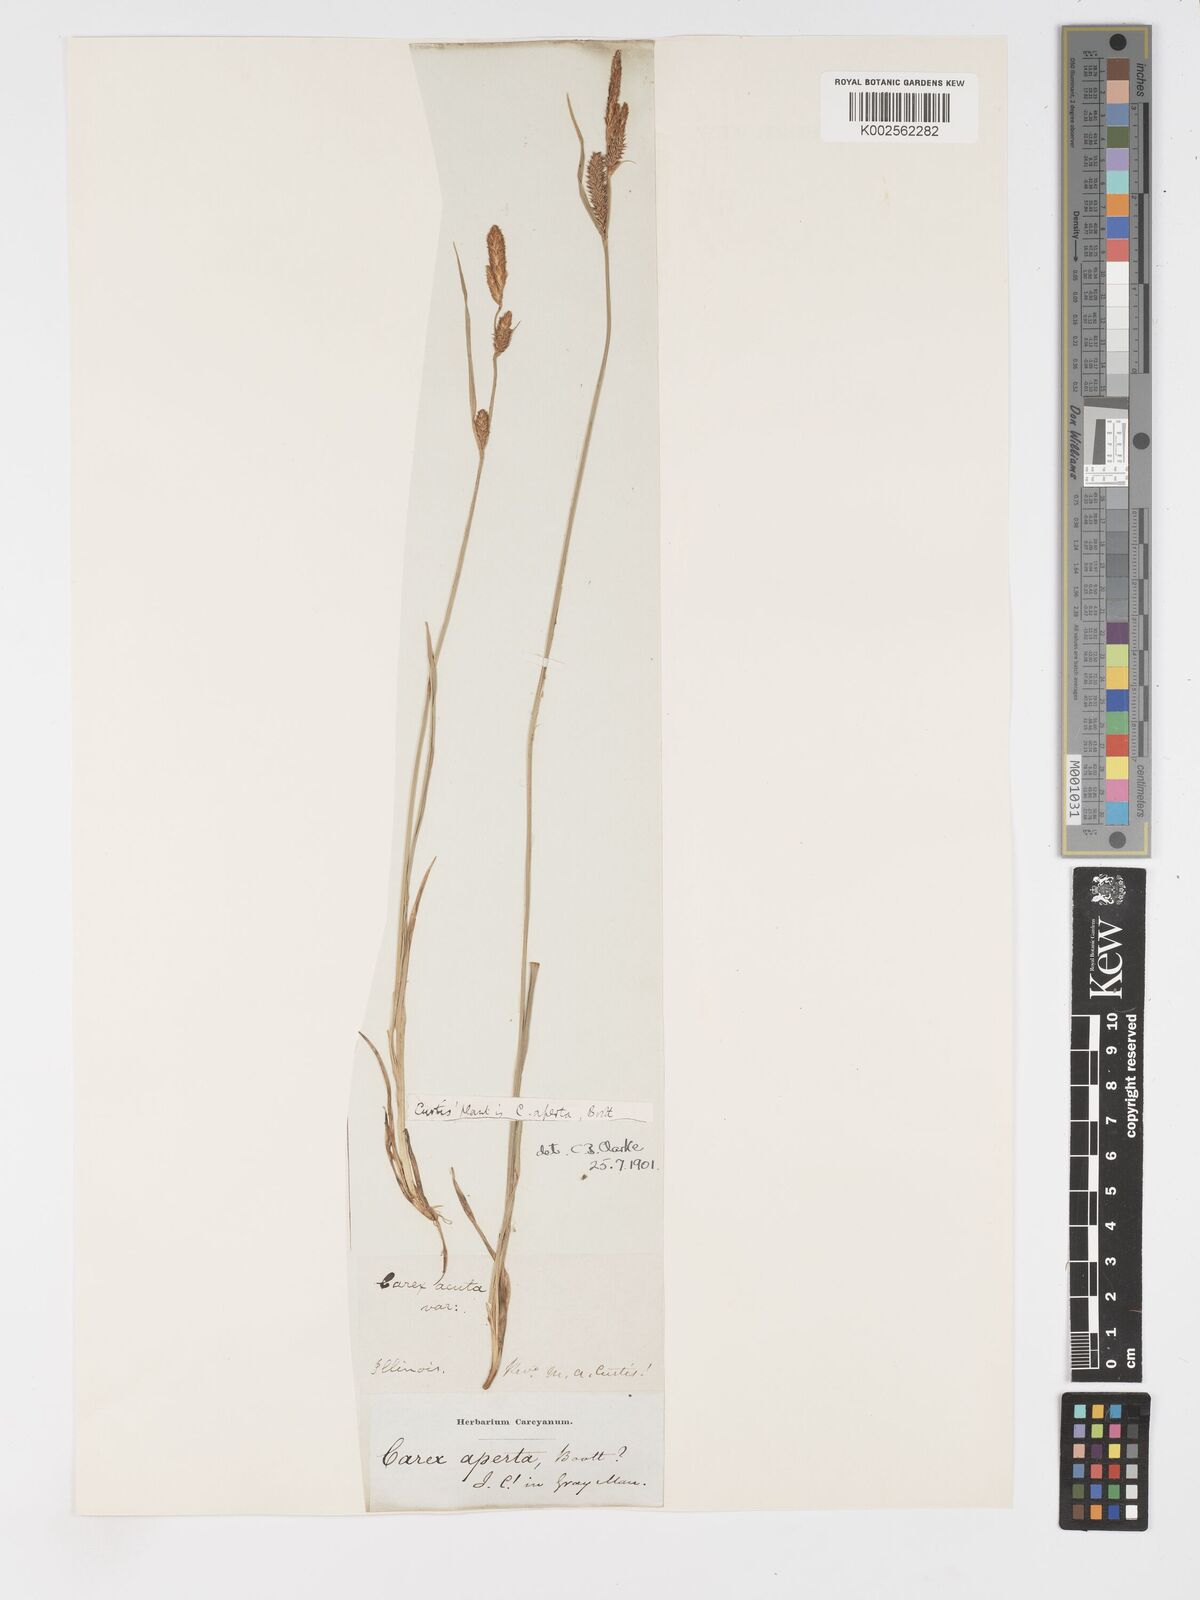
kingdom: Plantae
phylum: Tracheophyta
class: Liliopsida
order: Poales
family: Cyperaceae
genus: Carex
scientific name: Carex aperta
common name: Columbia sedge
